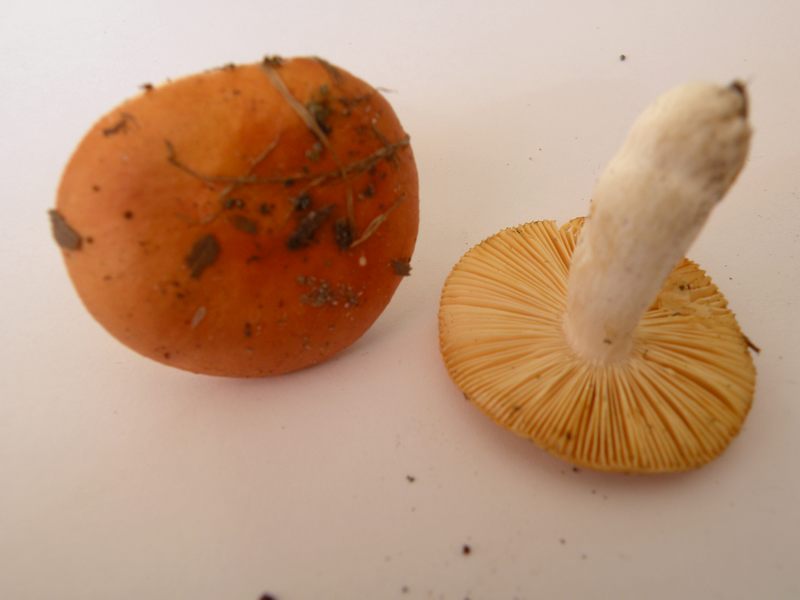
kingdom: Fungi
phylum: Basidiomycota
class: Agaricomycetes
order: Russulales
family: Russulaceae
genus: Russula
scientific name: Russula risigallina
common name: abrikos-skørhat
